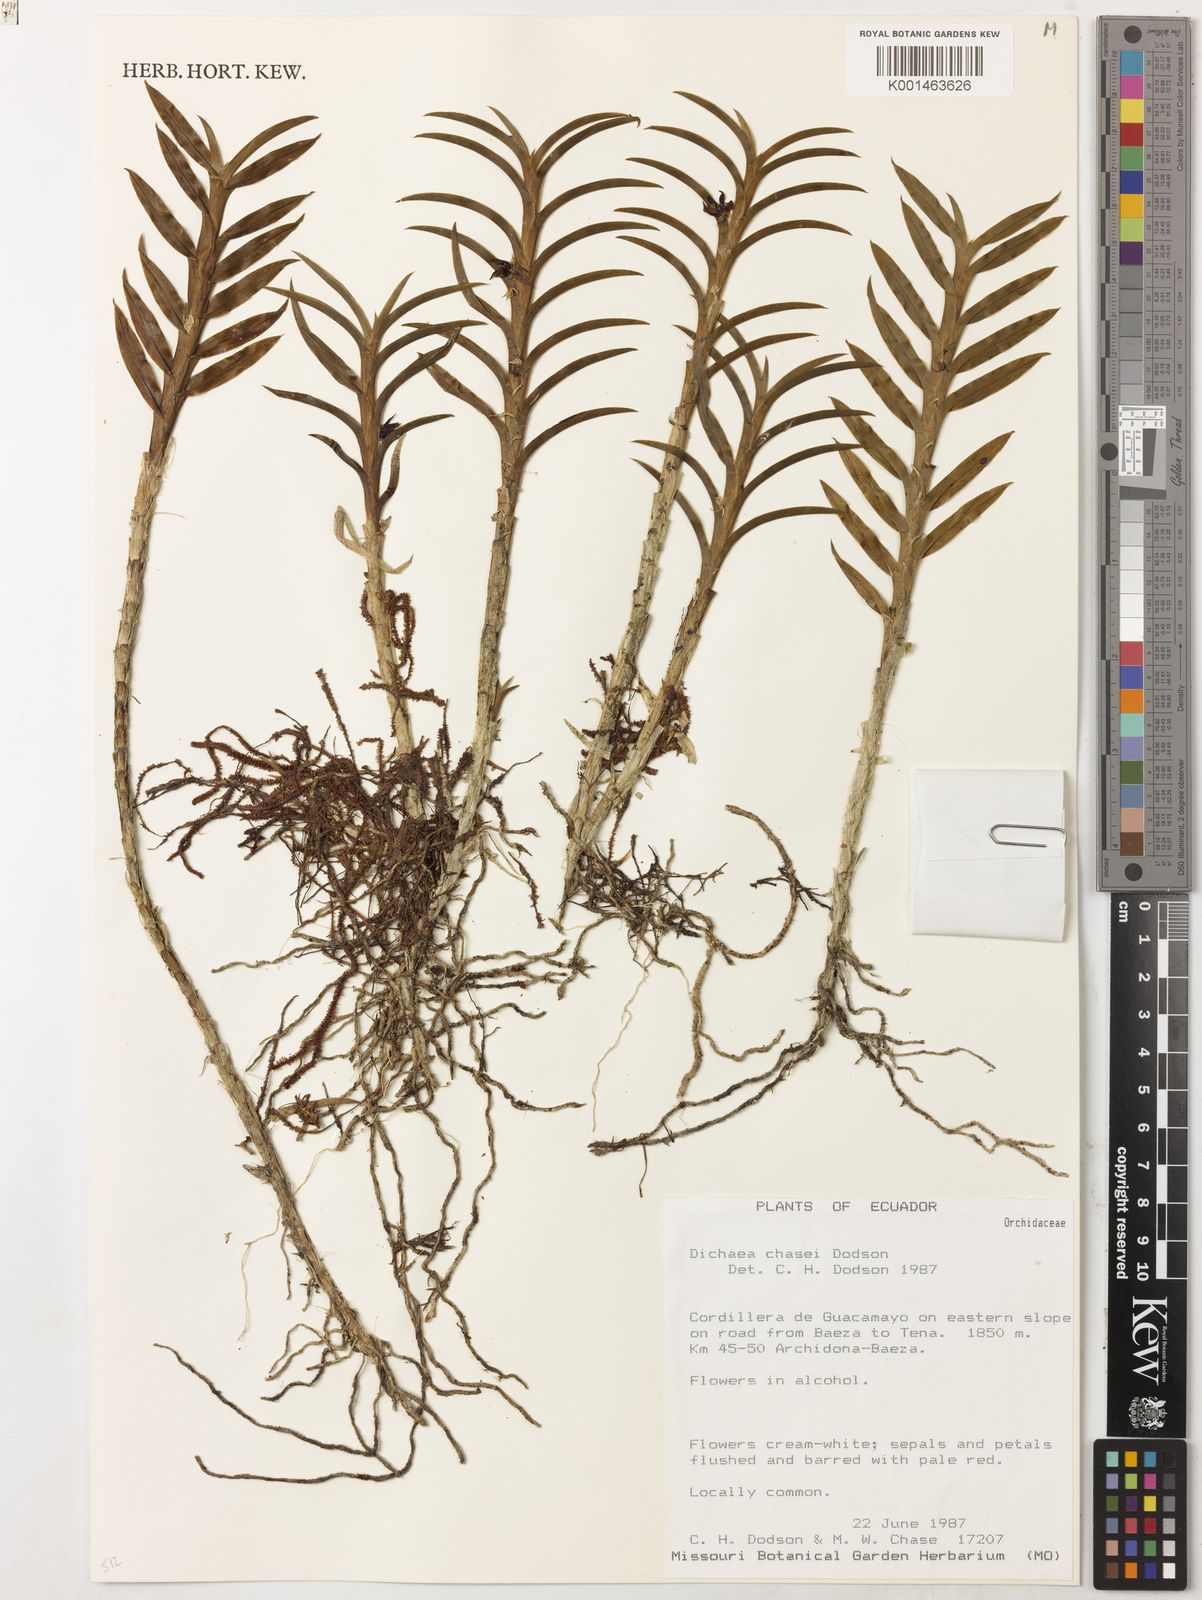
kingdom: Plantae
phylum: Tracheophyta
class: Liliopsida
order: Asparagales
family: Orchidaceae
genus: Dichaea
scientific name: Dichaea chasei
